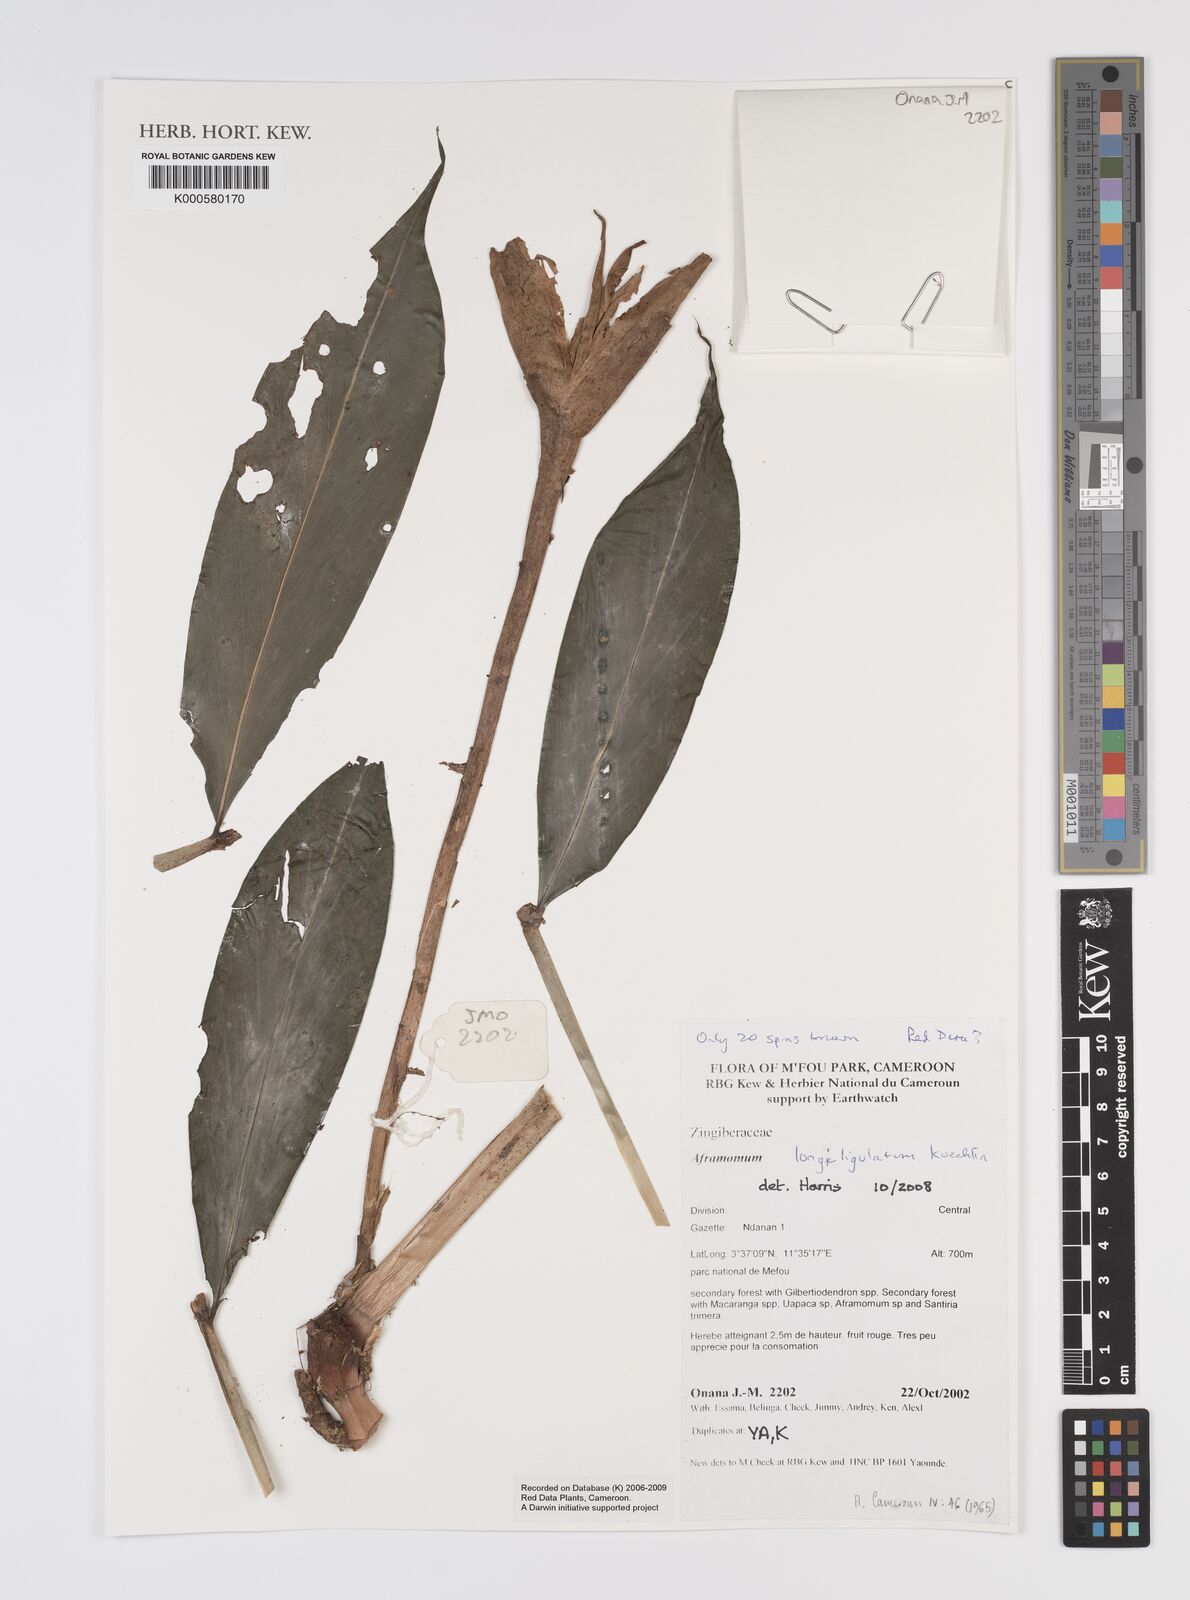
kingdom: Plantae
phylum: Tracheophyta
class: Liliopsida
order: Zingiberales
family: Zingiberaceae
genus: Aframomum
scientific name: Aframomum longiligulatum
